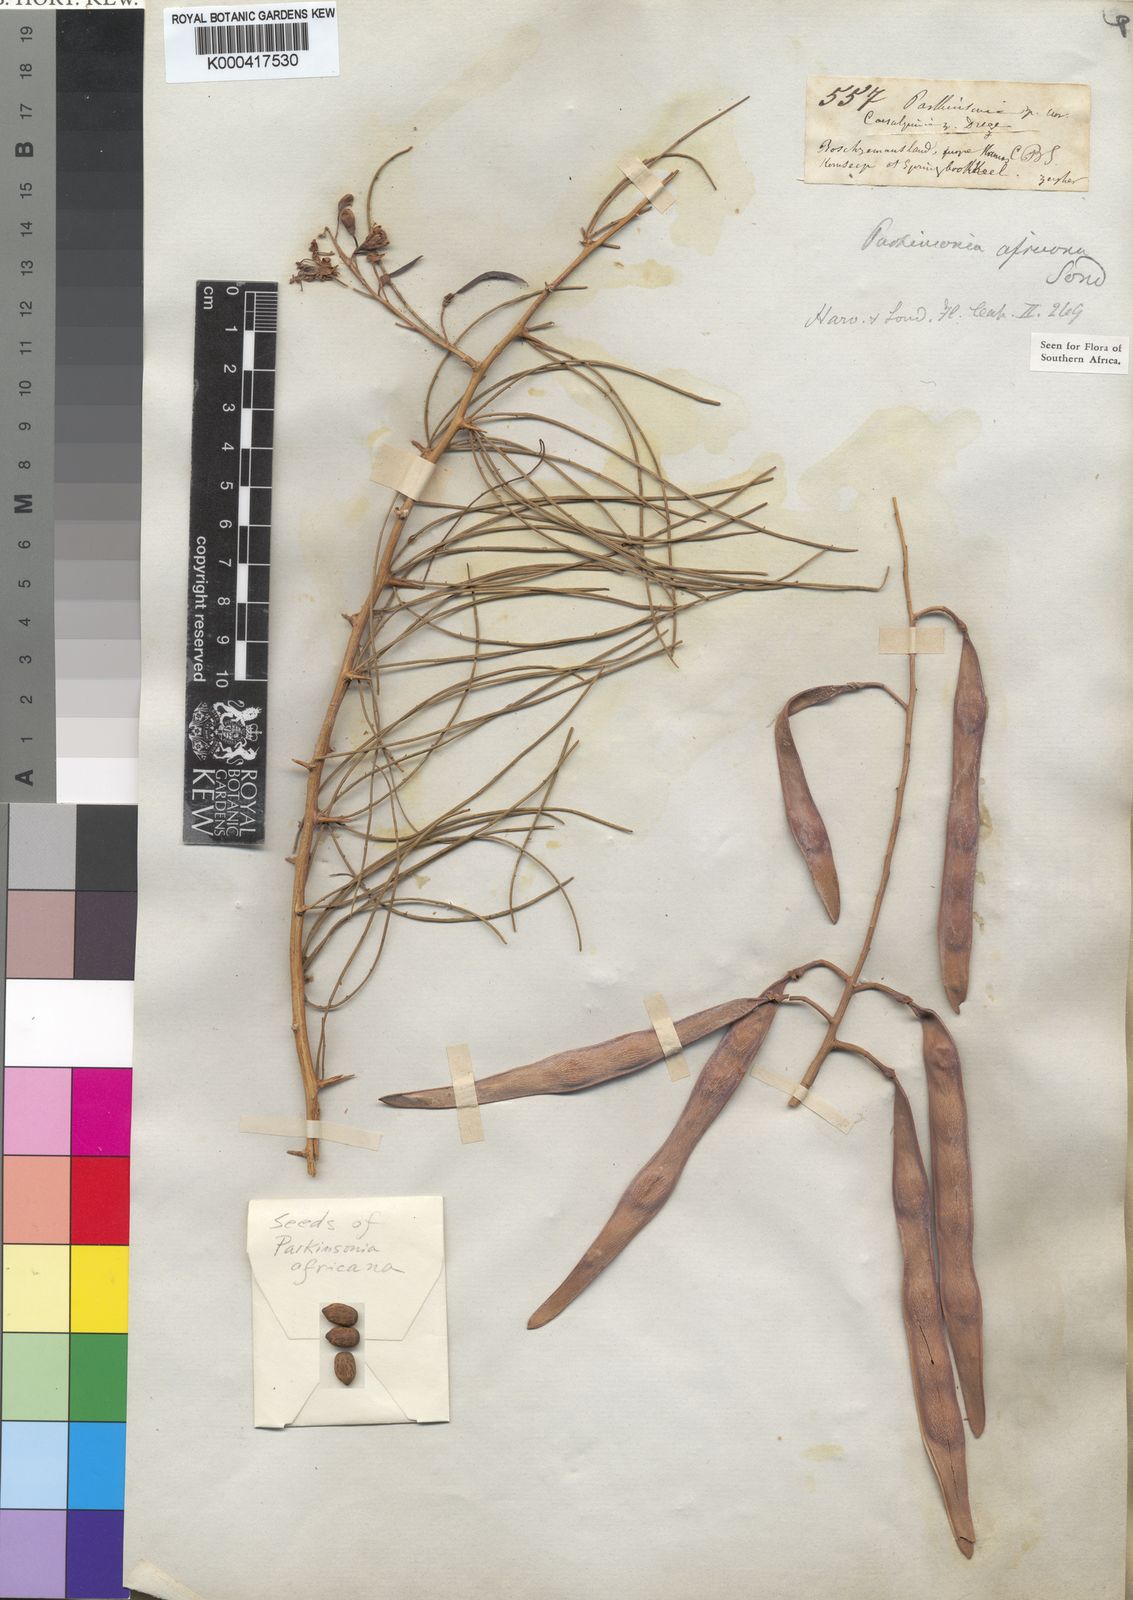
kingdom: Plantae
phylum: Tracheophyta
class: Magnoliopsida
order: Fabales
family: Fabaceae
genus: Parkinsonia
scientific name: Parkinsonia africana
